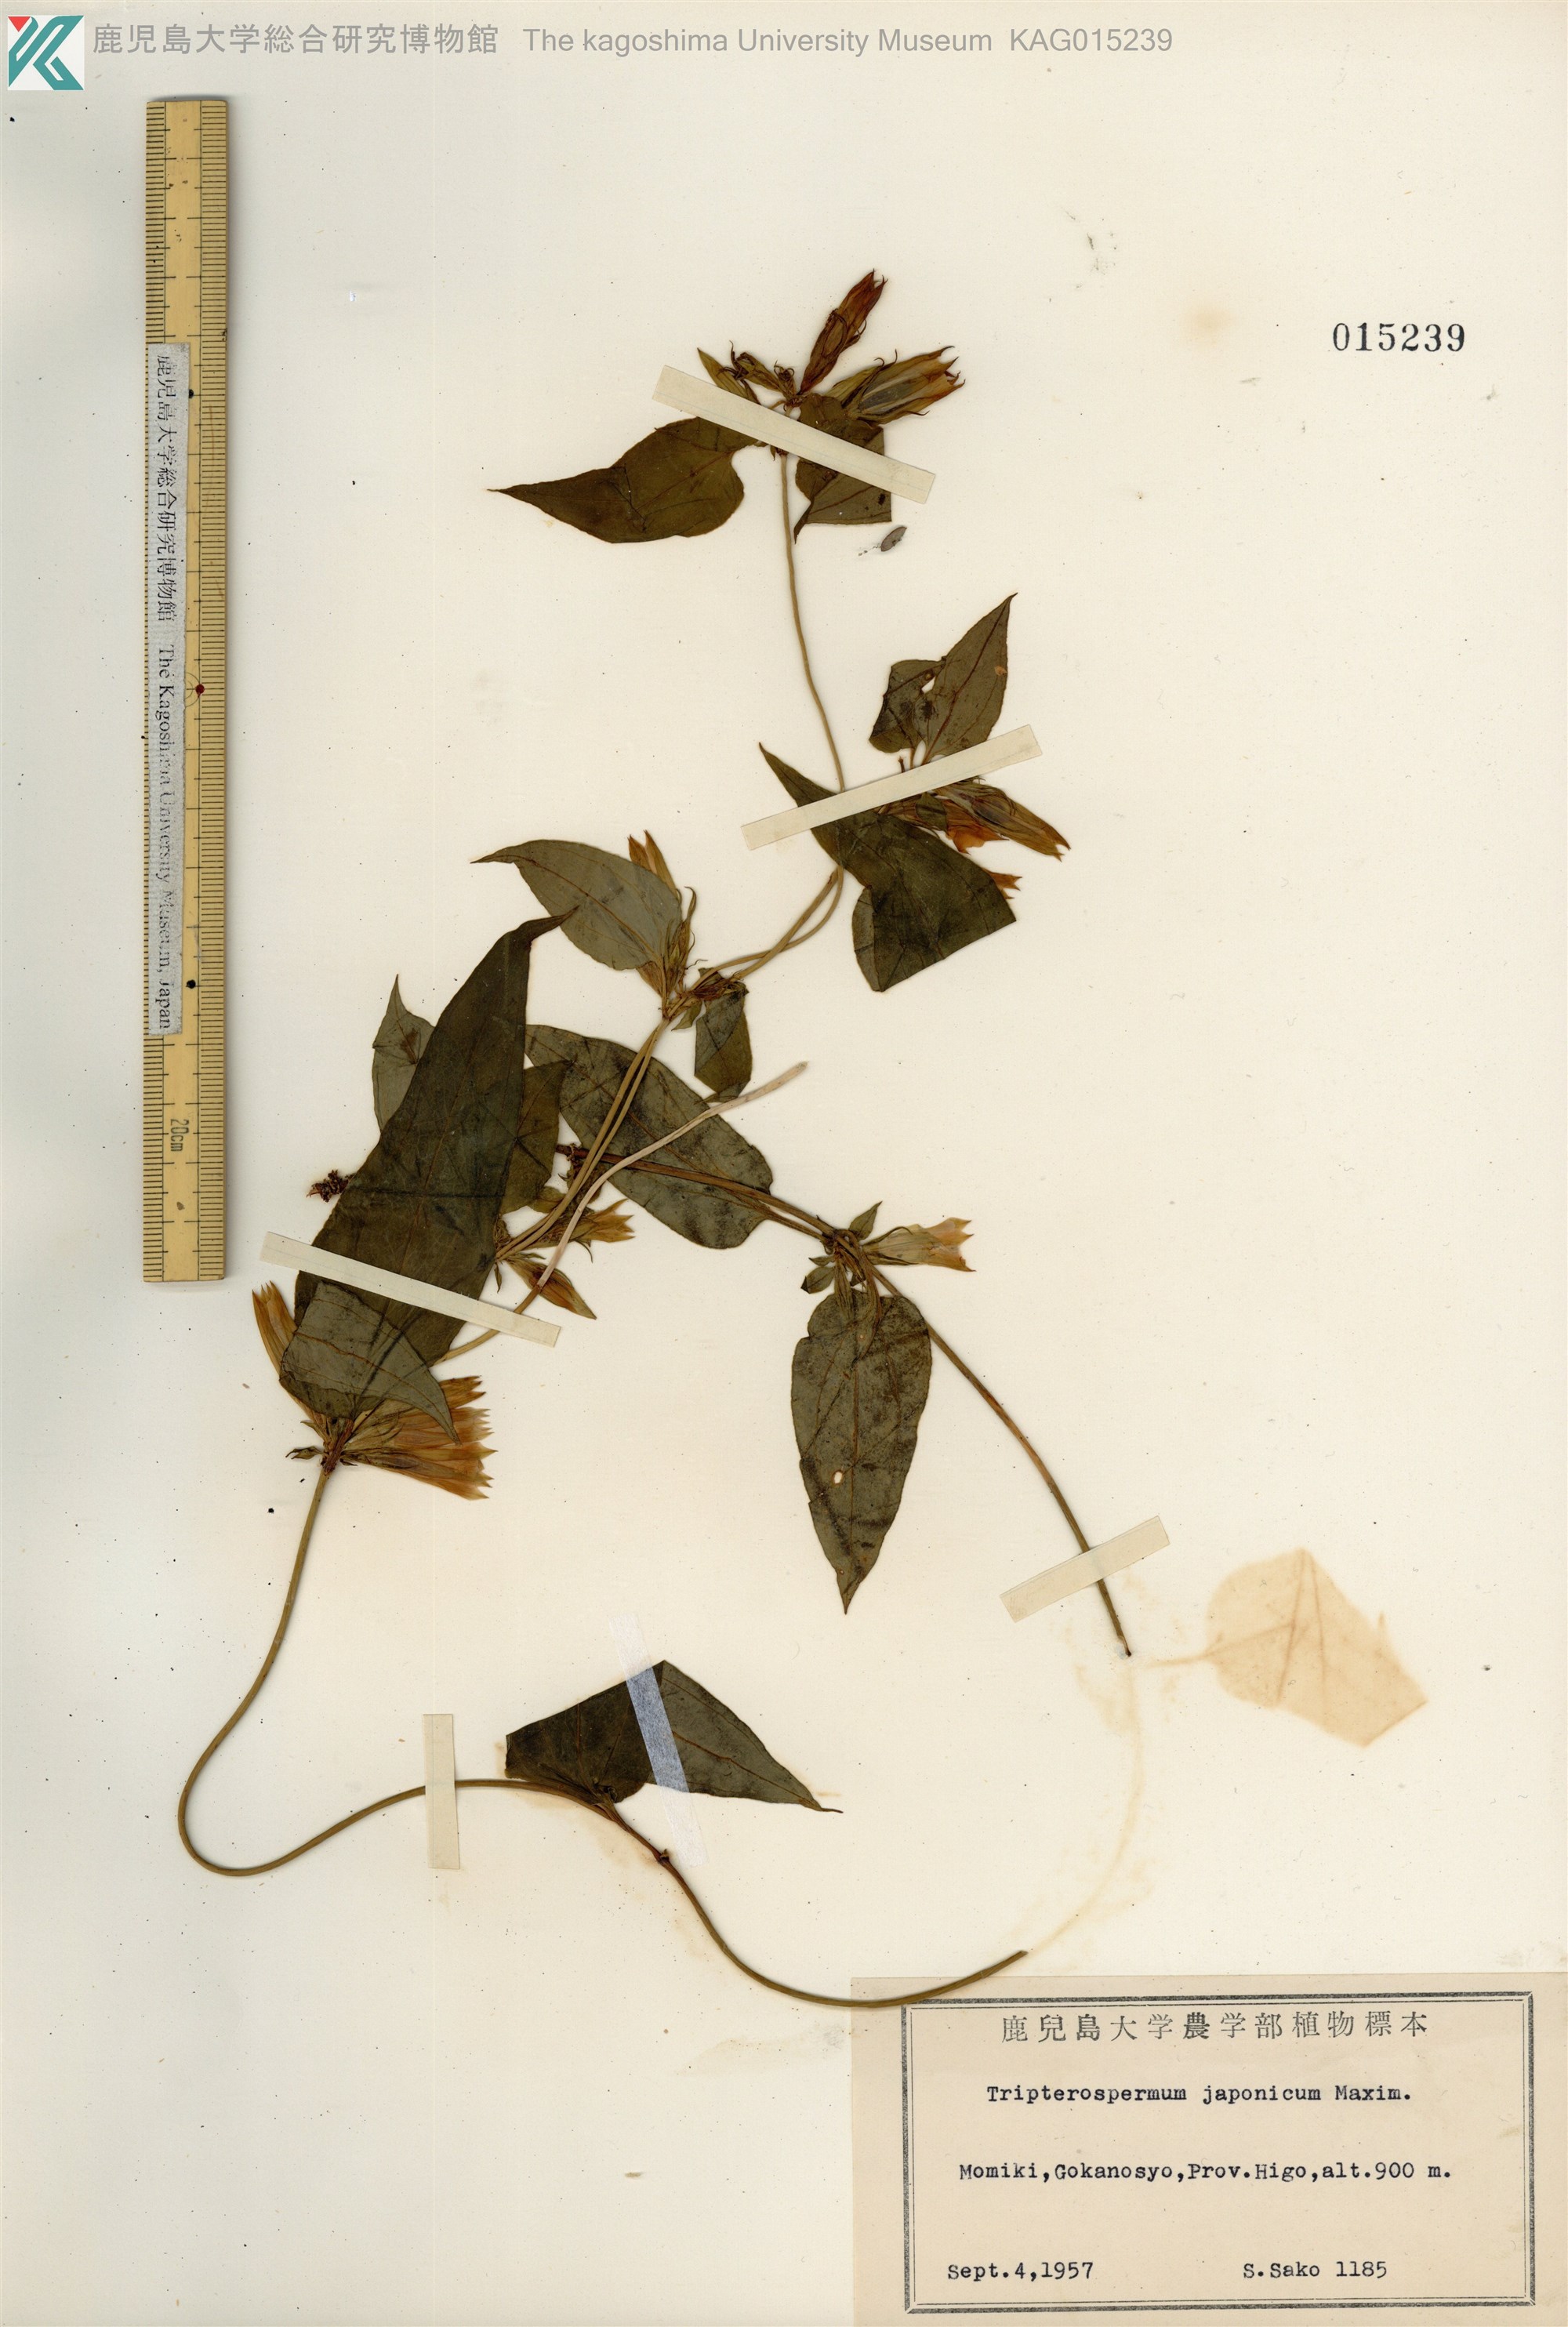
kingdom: Plantae
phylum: Tracheophyta
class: Magnoliopsida
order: Gentianales
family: Gentianaceae
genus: Tripterospermum
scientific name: Tripterospermum trinervium
